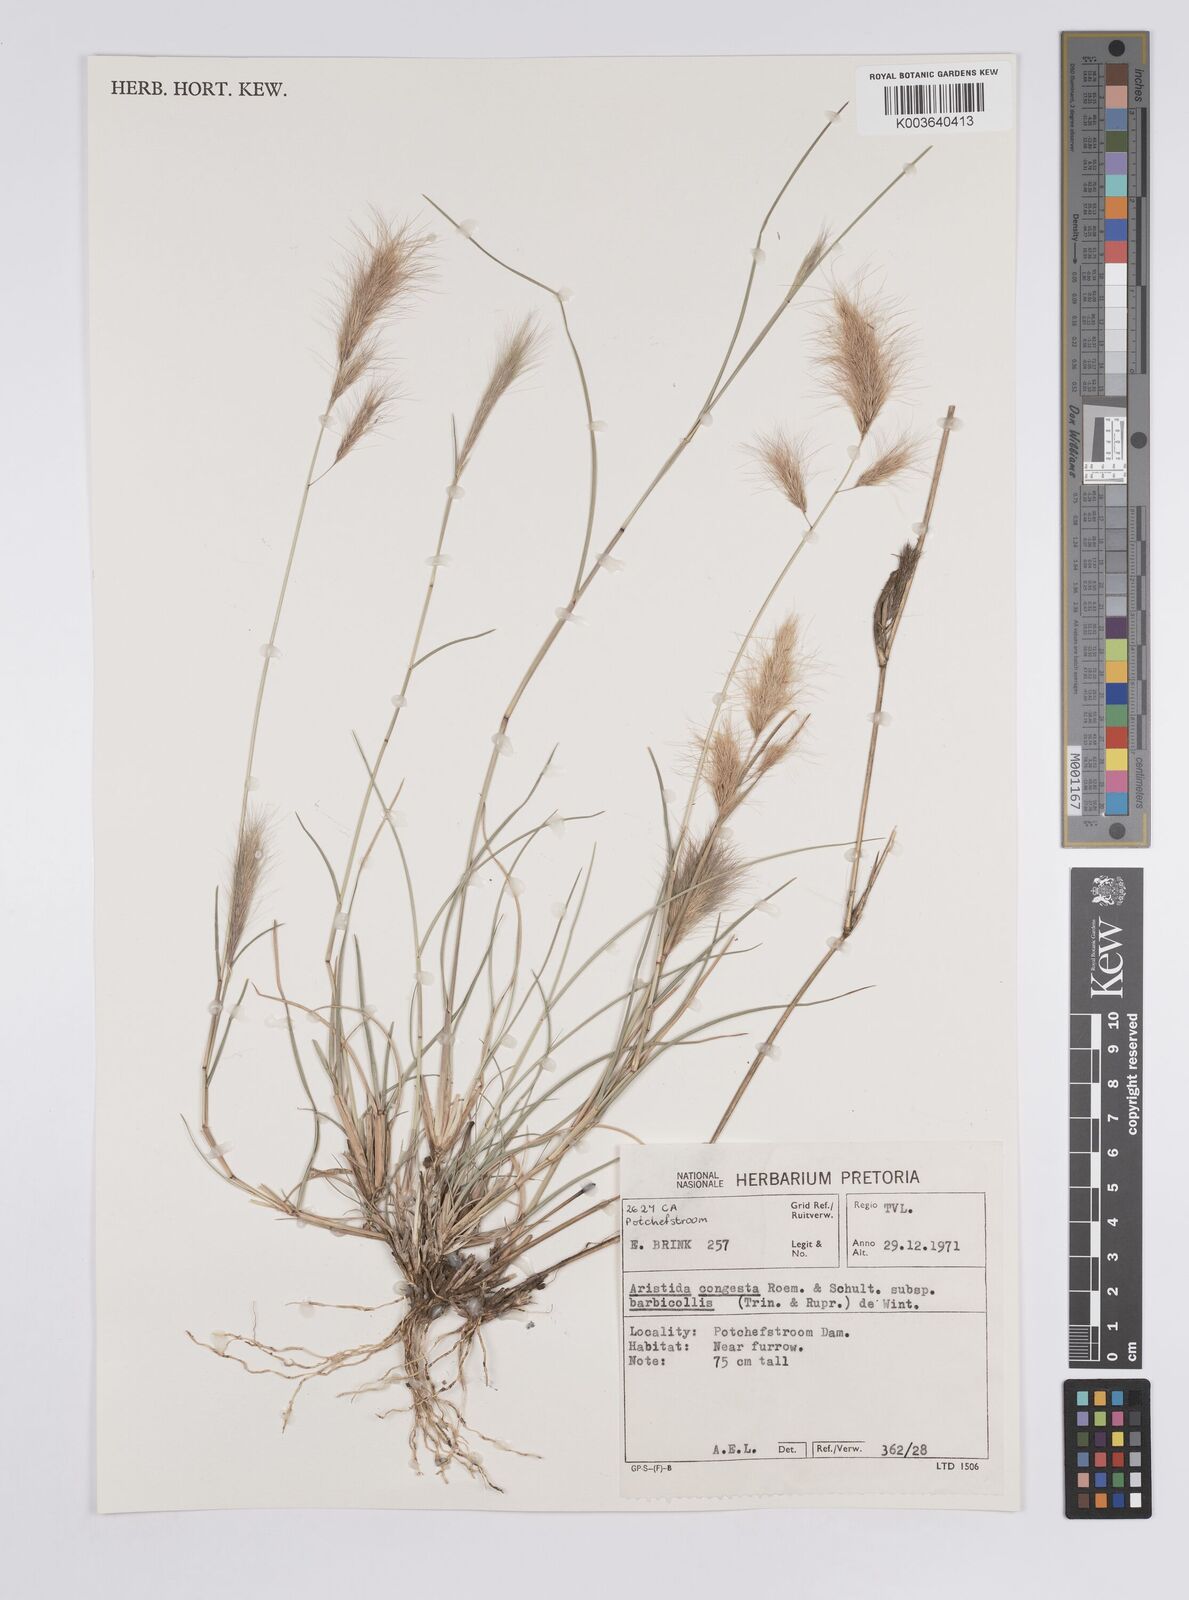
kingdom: Plantae
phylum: Tracheophyta
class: Liliopsida
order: Poales
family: Poaceae
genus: Aristida
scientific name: Aristida barbicollis
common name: Spreading prickle grass
